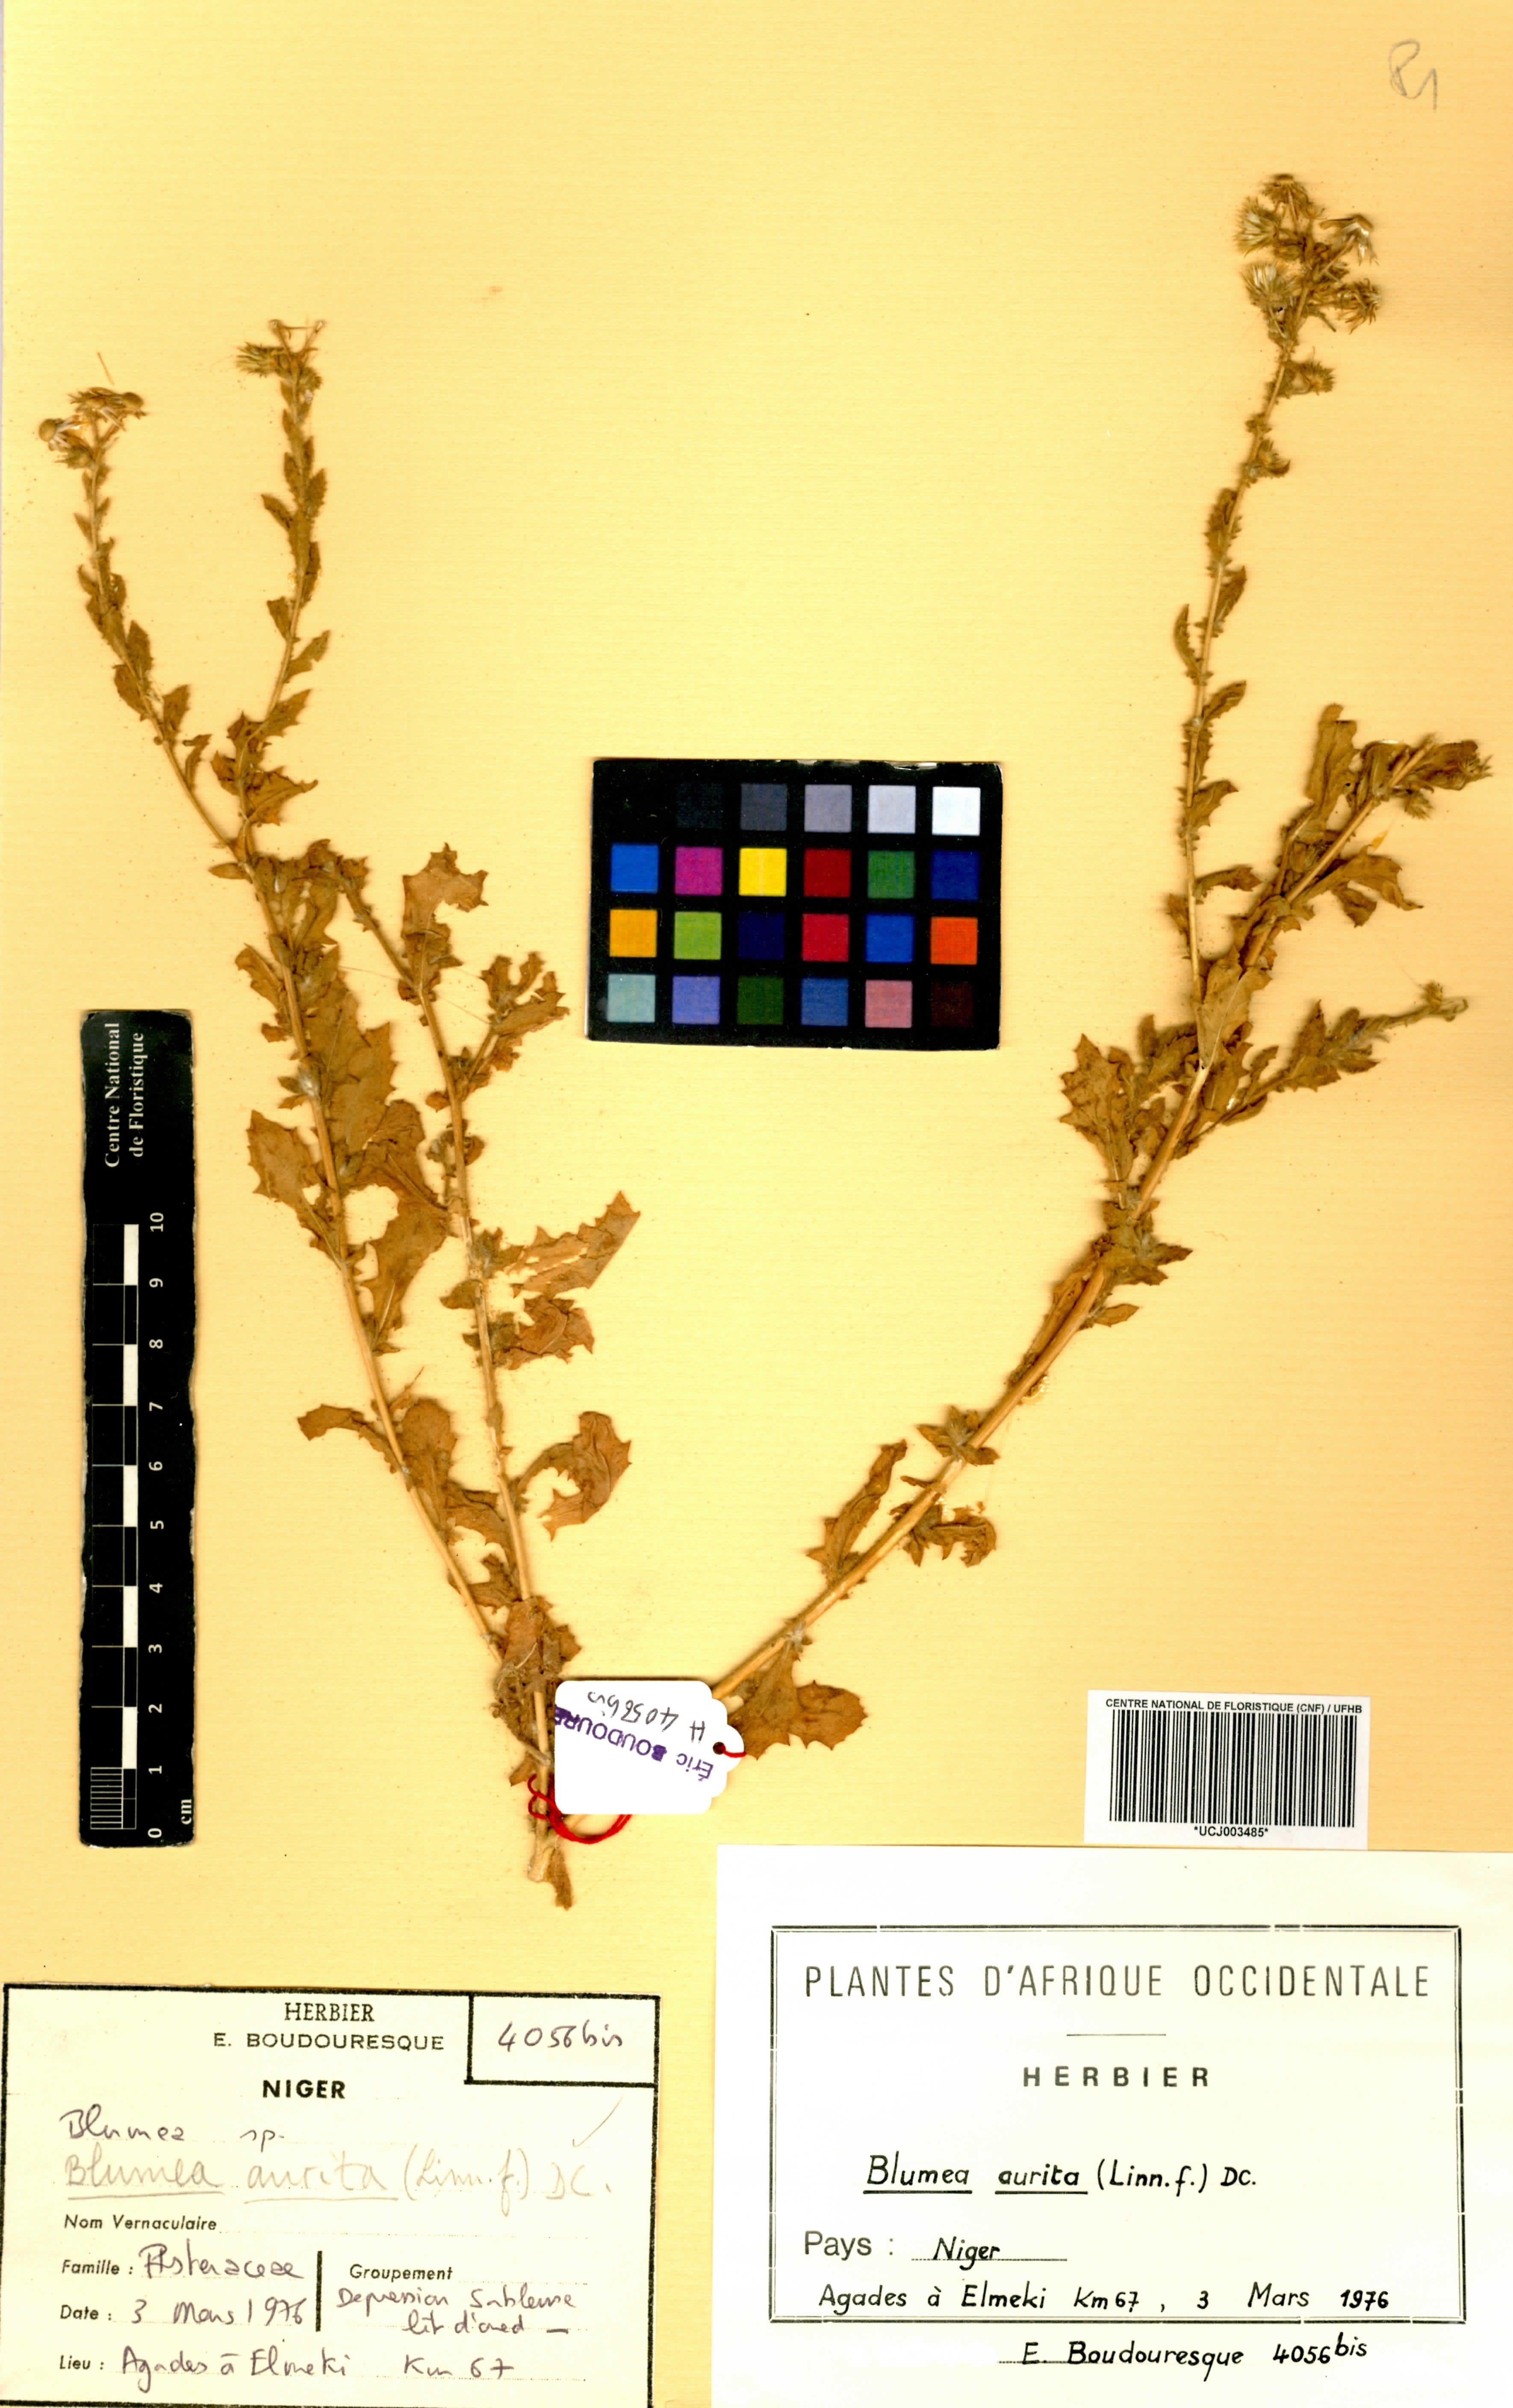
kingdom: Plantae
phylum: Tracheophyta
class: Magnoliopsida
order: Asterales
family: Asteraceae
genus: Pseudoconyza
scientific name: Pseudoconyza viscosa
